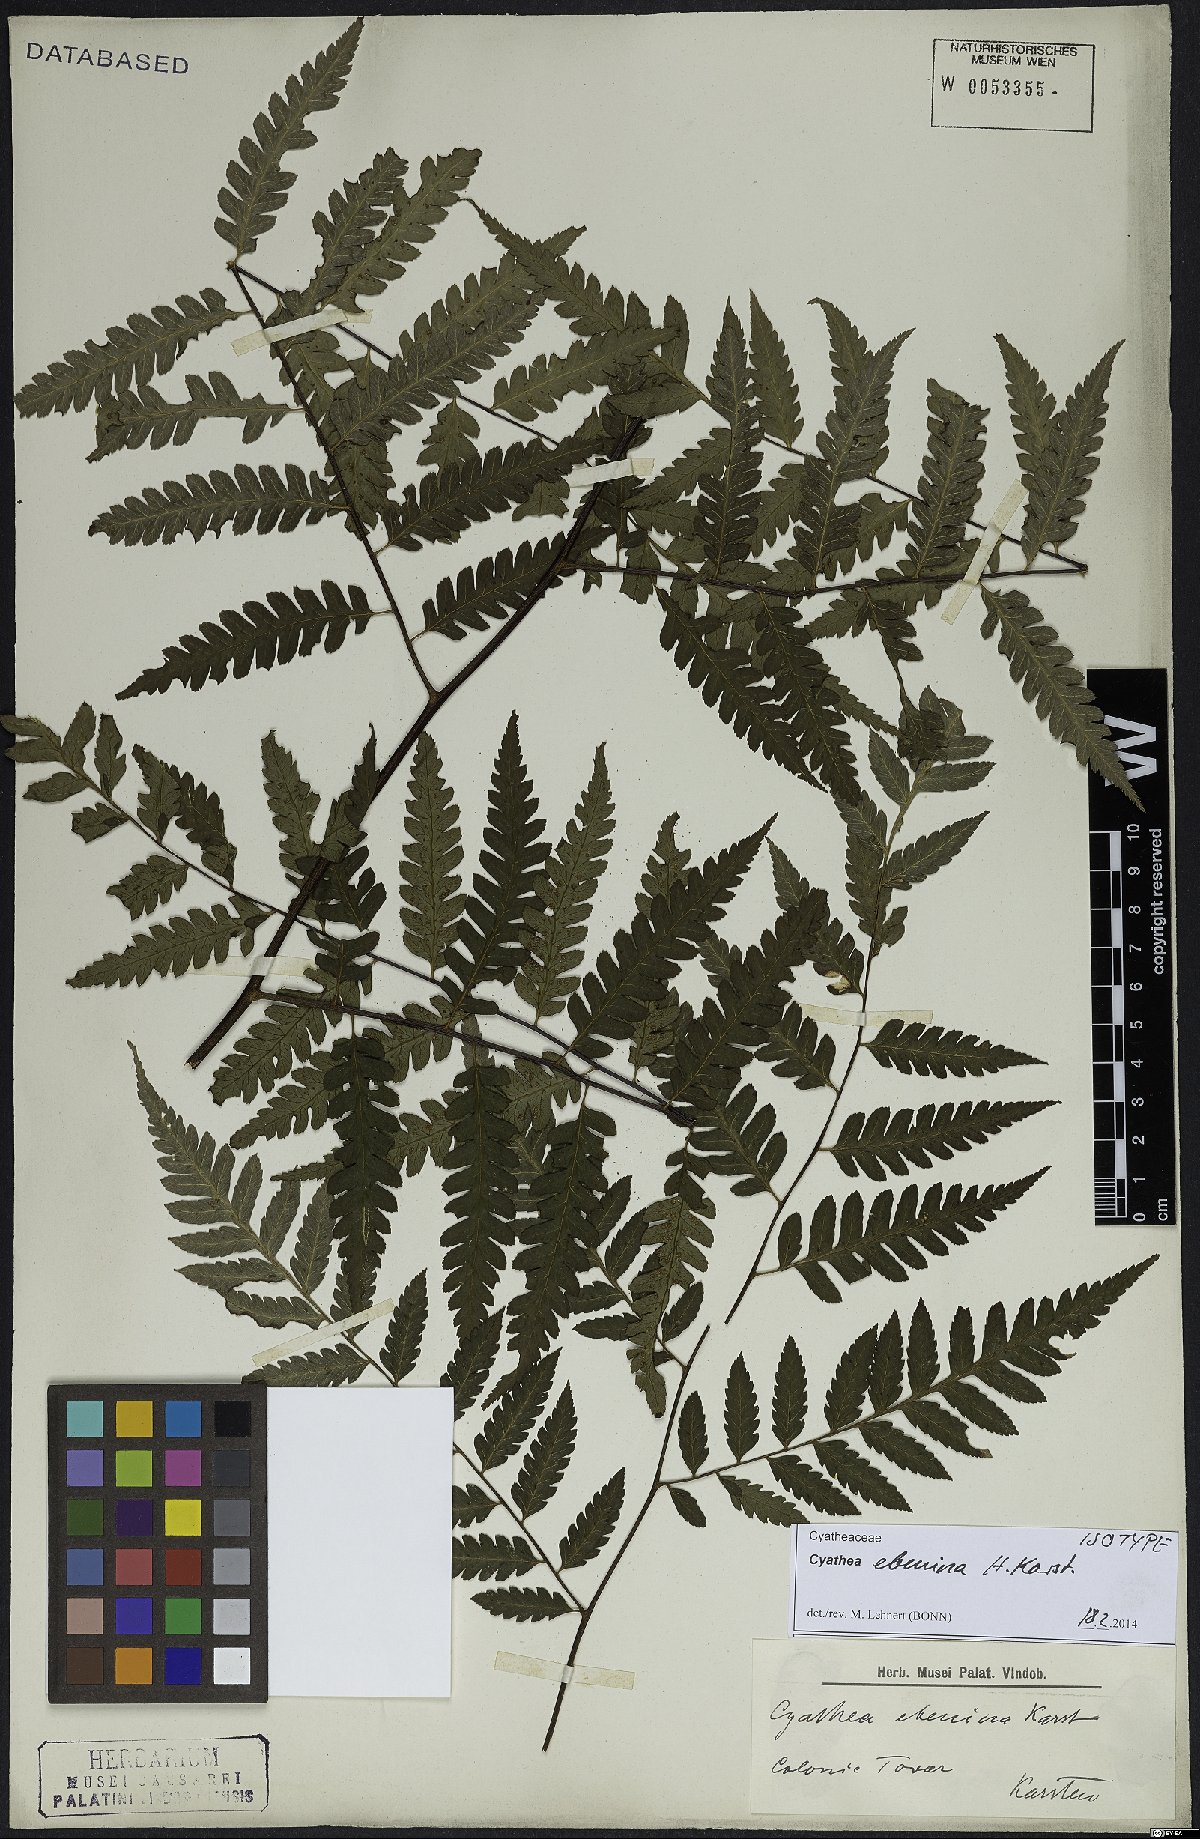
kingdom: Plantae
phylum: Tracheophyta
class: Polypodiopsida
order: Cyatheales
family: Cyatheaceae
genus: Cyathea
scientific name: Cyathea ebenina
